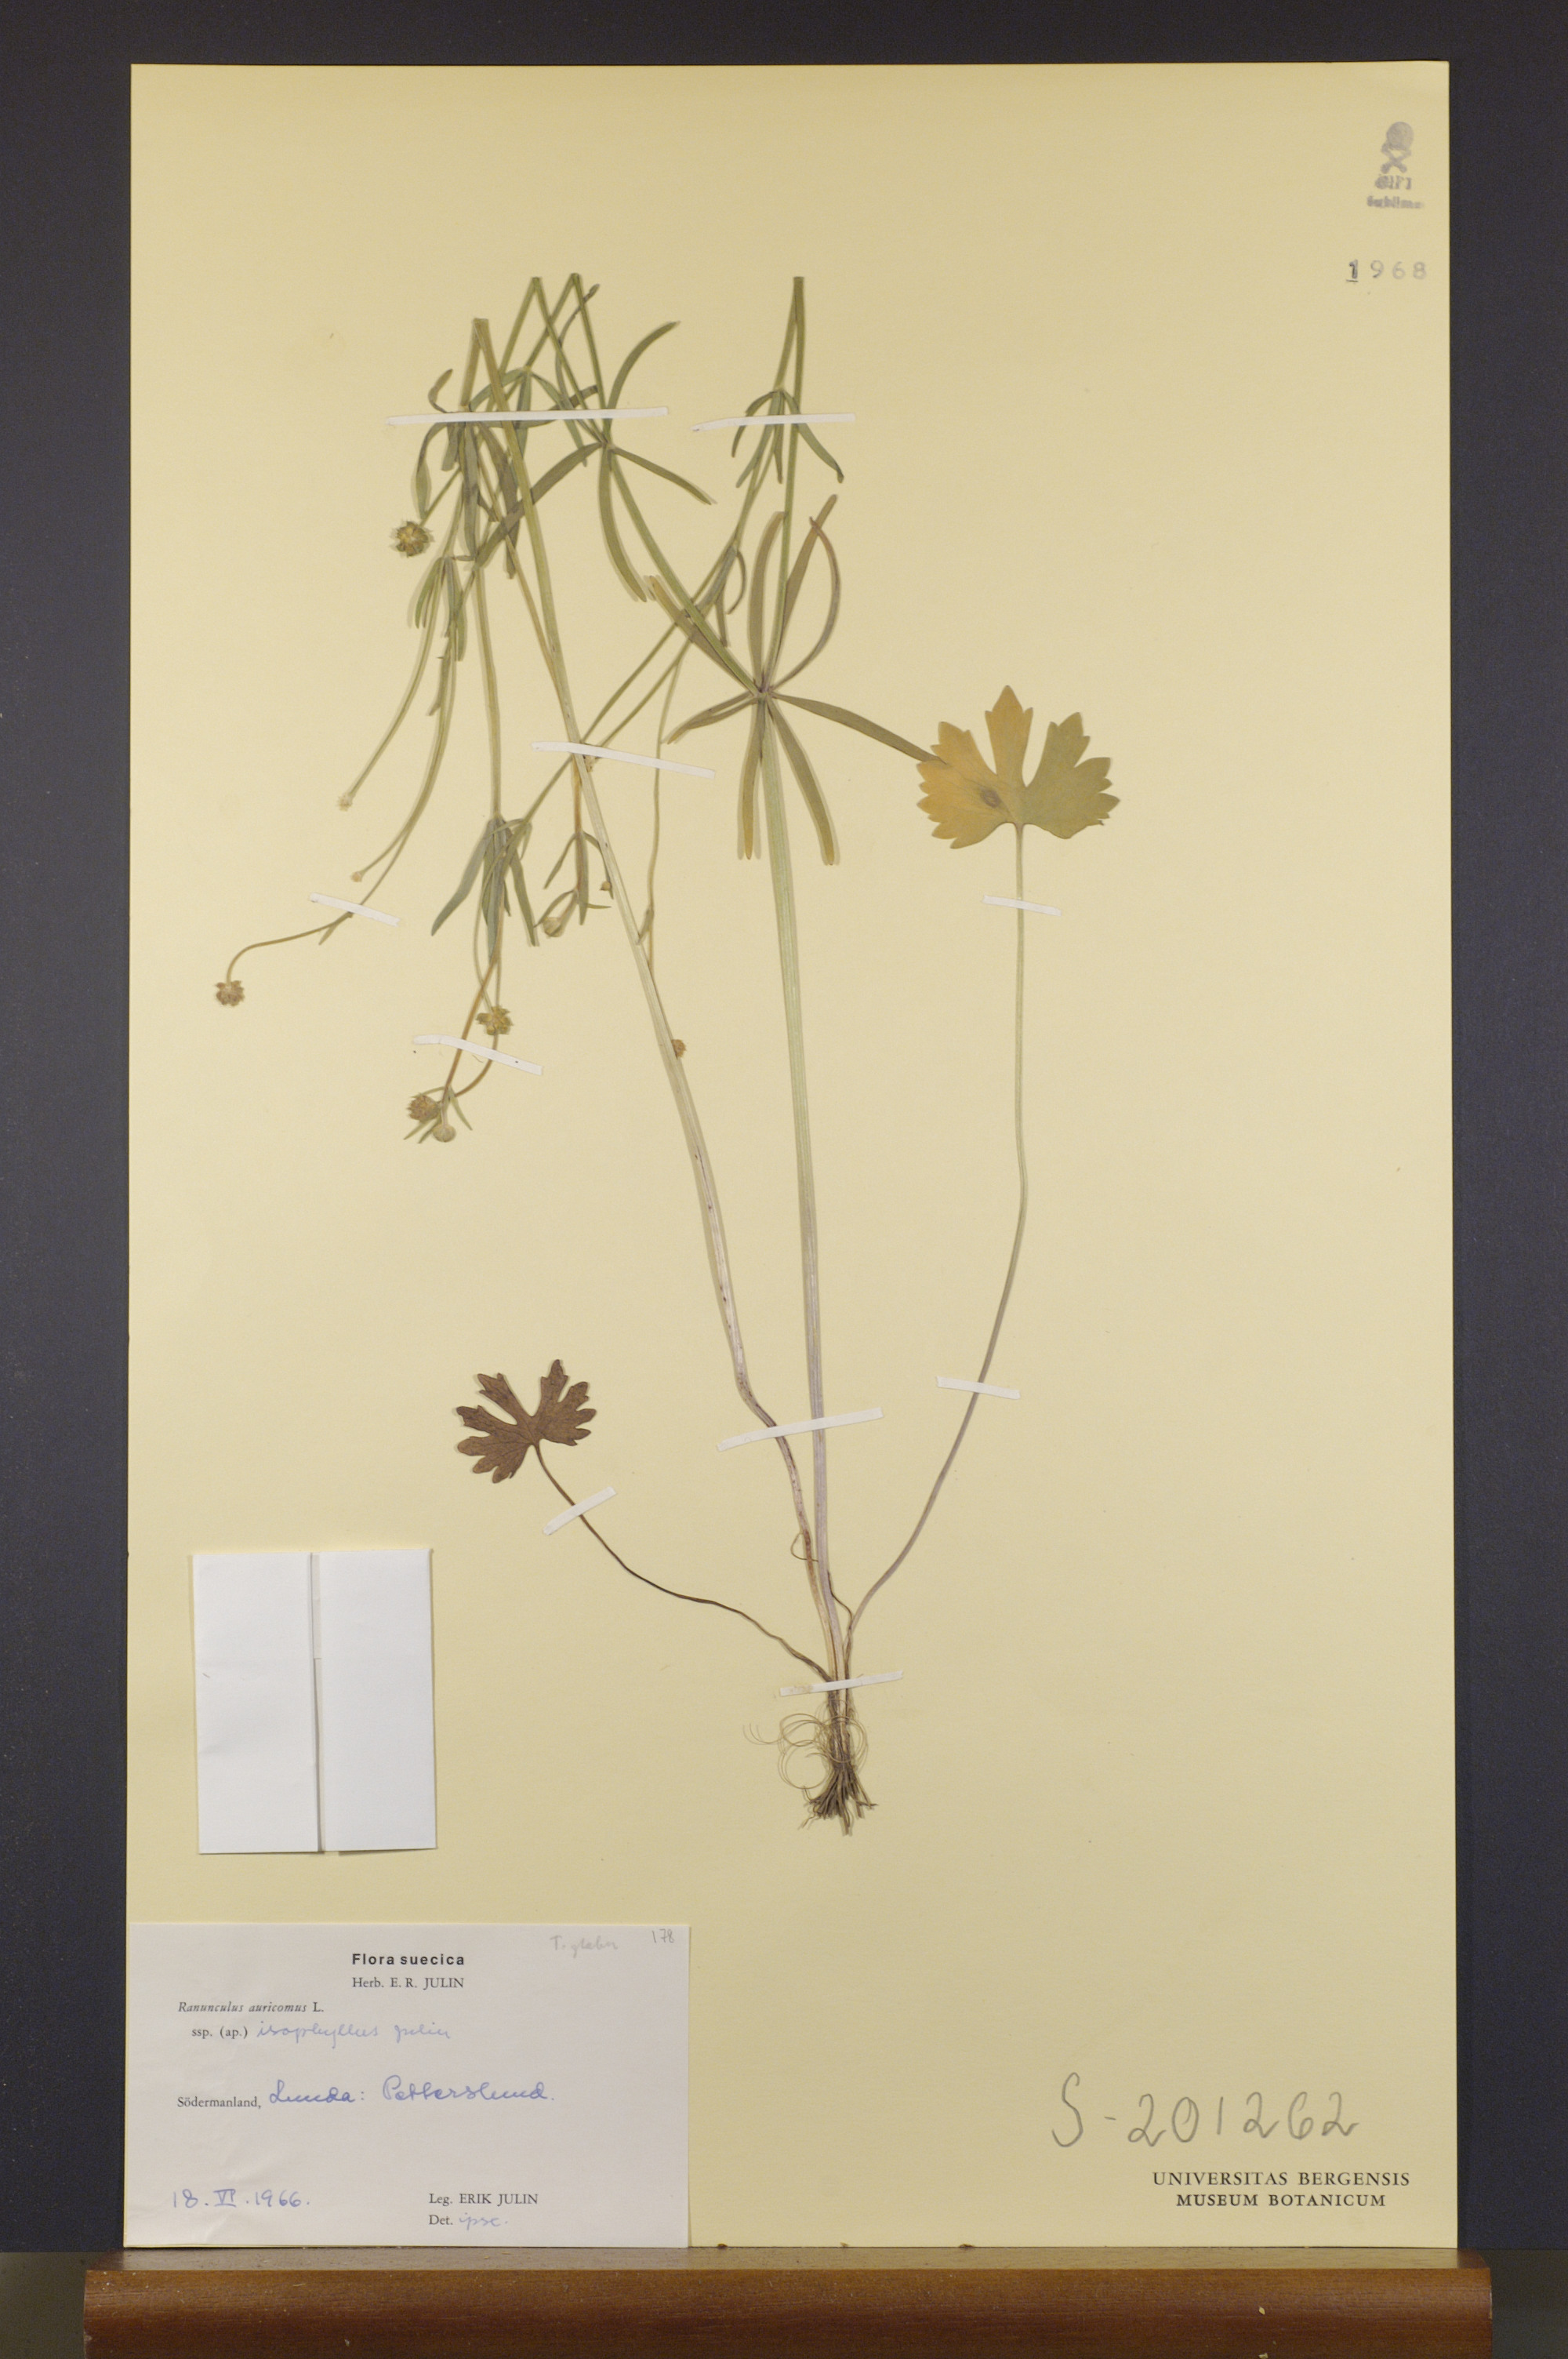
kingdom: Plantae
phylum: Tracheophyta
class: Magnoliopsida
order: Ranunculales
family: Ranunculaceae
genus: Ranunculus
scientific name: Ranunculus isophyllus
